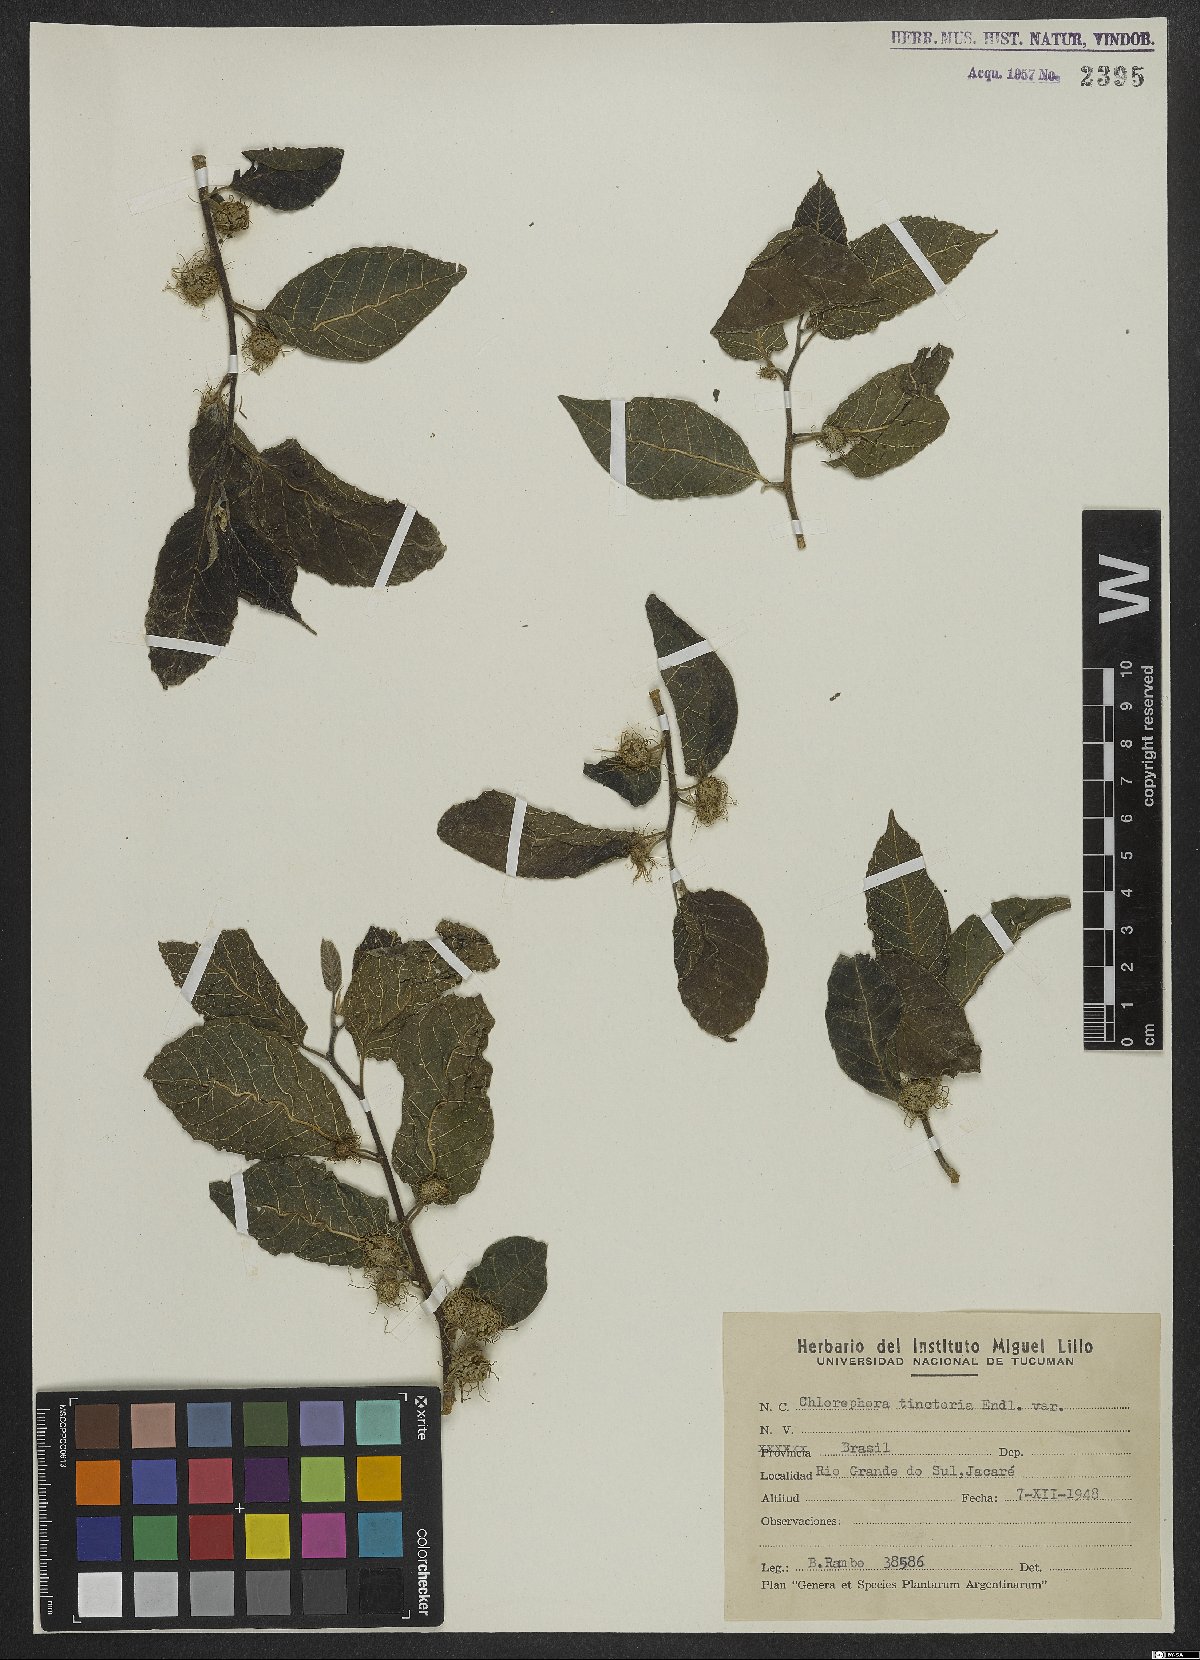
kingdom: Plantae
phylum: Tracheophyta
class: Magnoliopsida
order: Rosales
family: Moraceae
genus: Maclura
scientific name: Maclura tinctoria
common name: Old fustic
